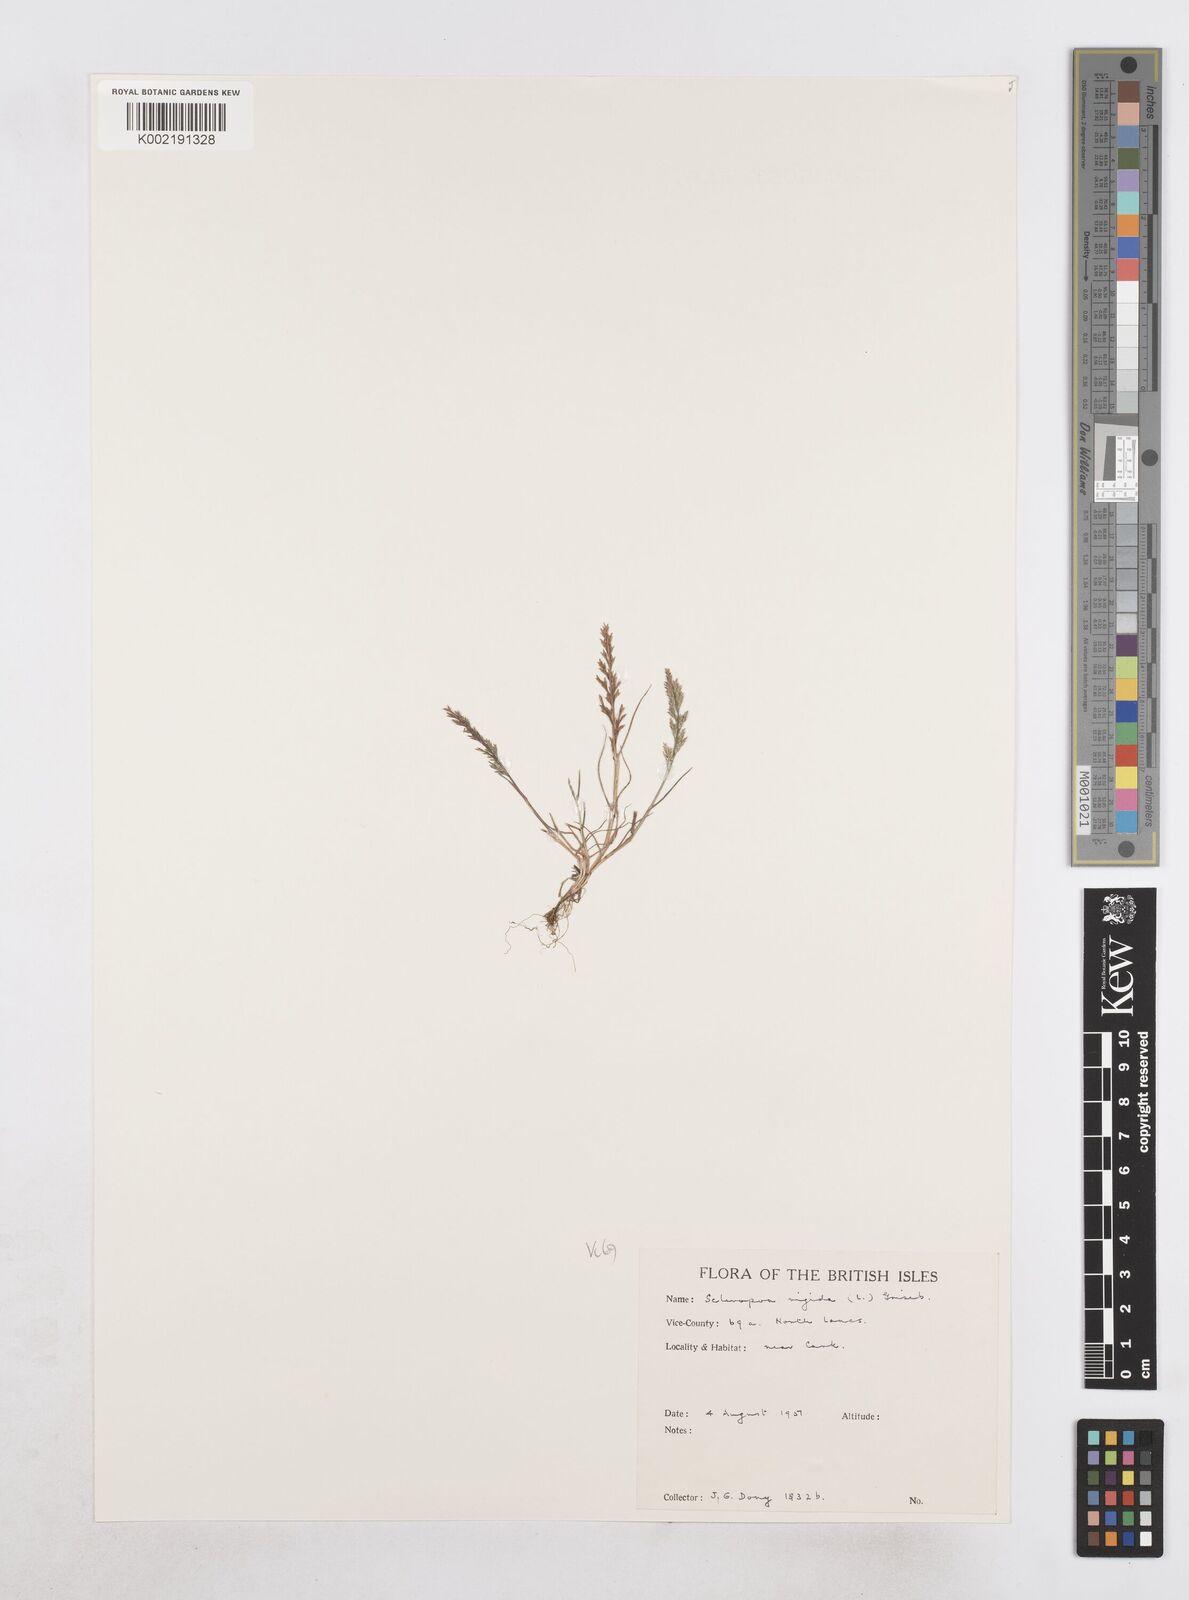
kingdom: Plantae
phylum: Tracheophyta
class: Liliopsida
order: Poales
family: Poaceae
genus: Catapodium
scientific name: Catapodium rigidum
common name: Fern-grass
